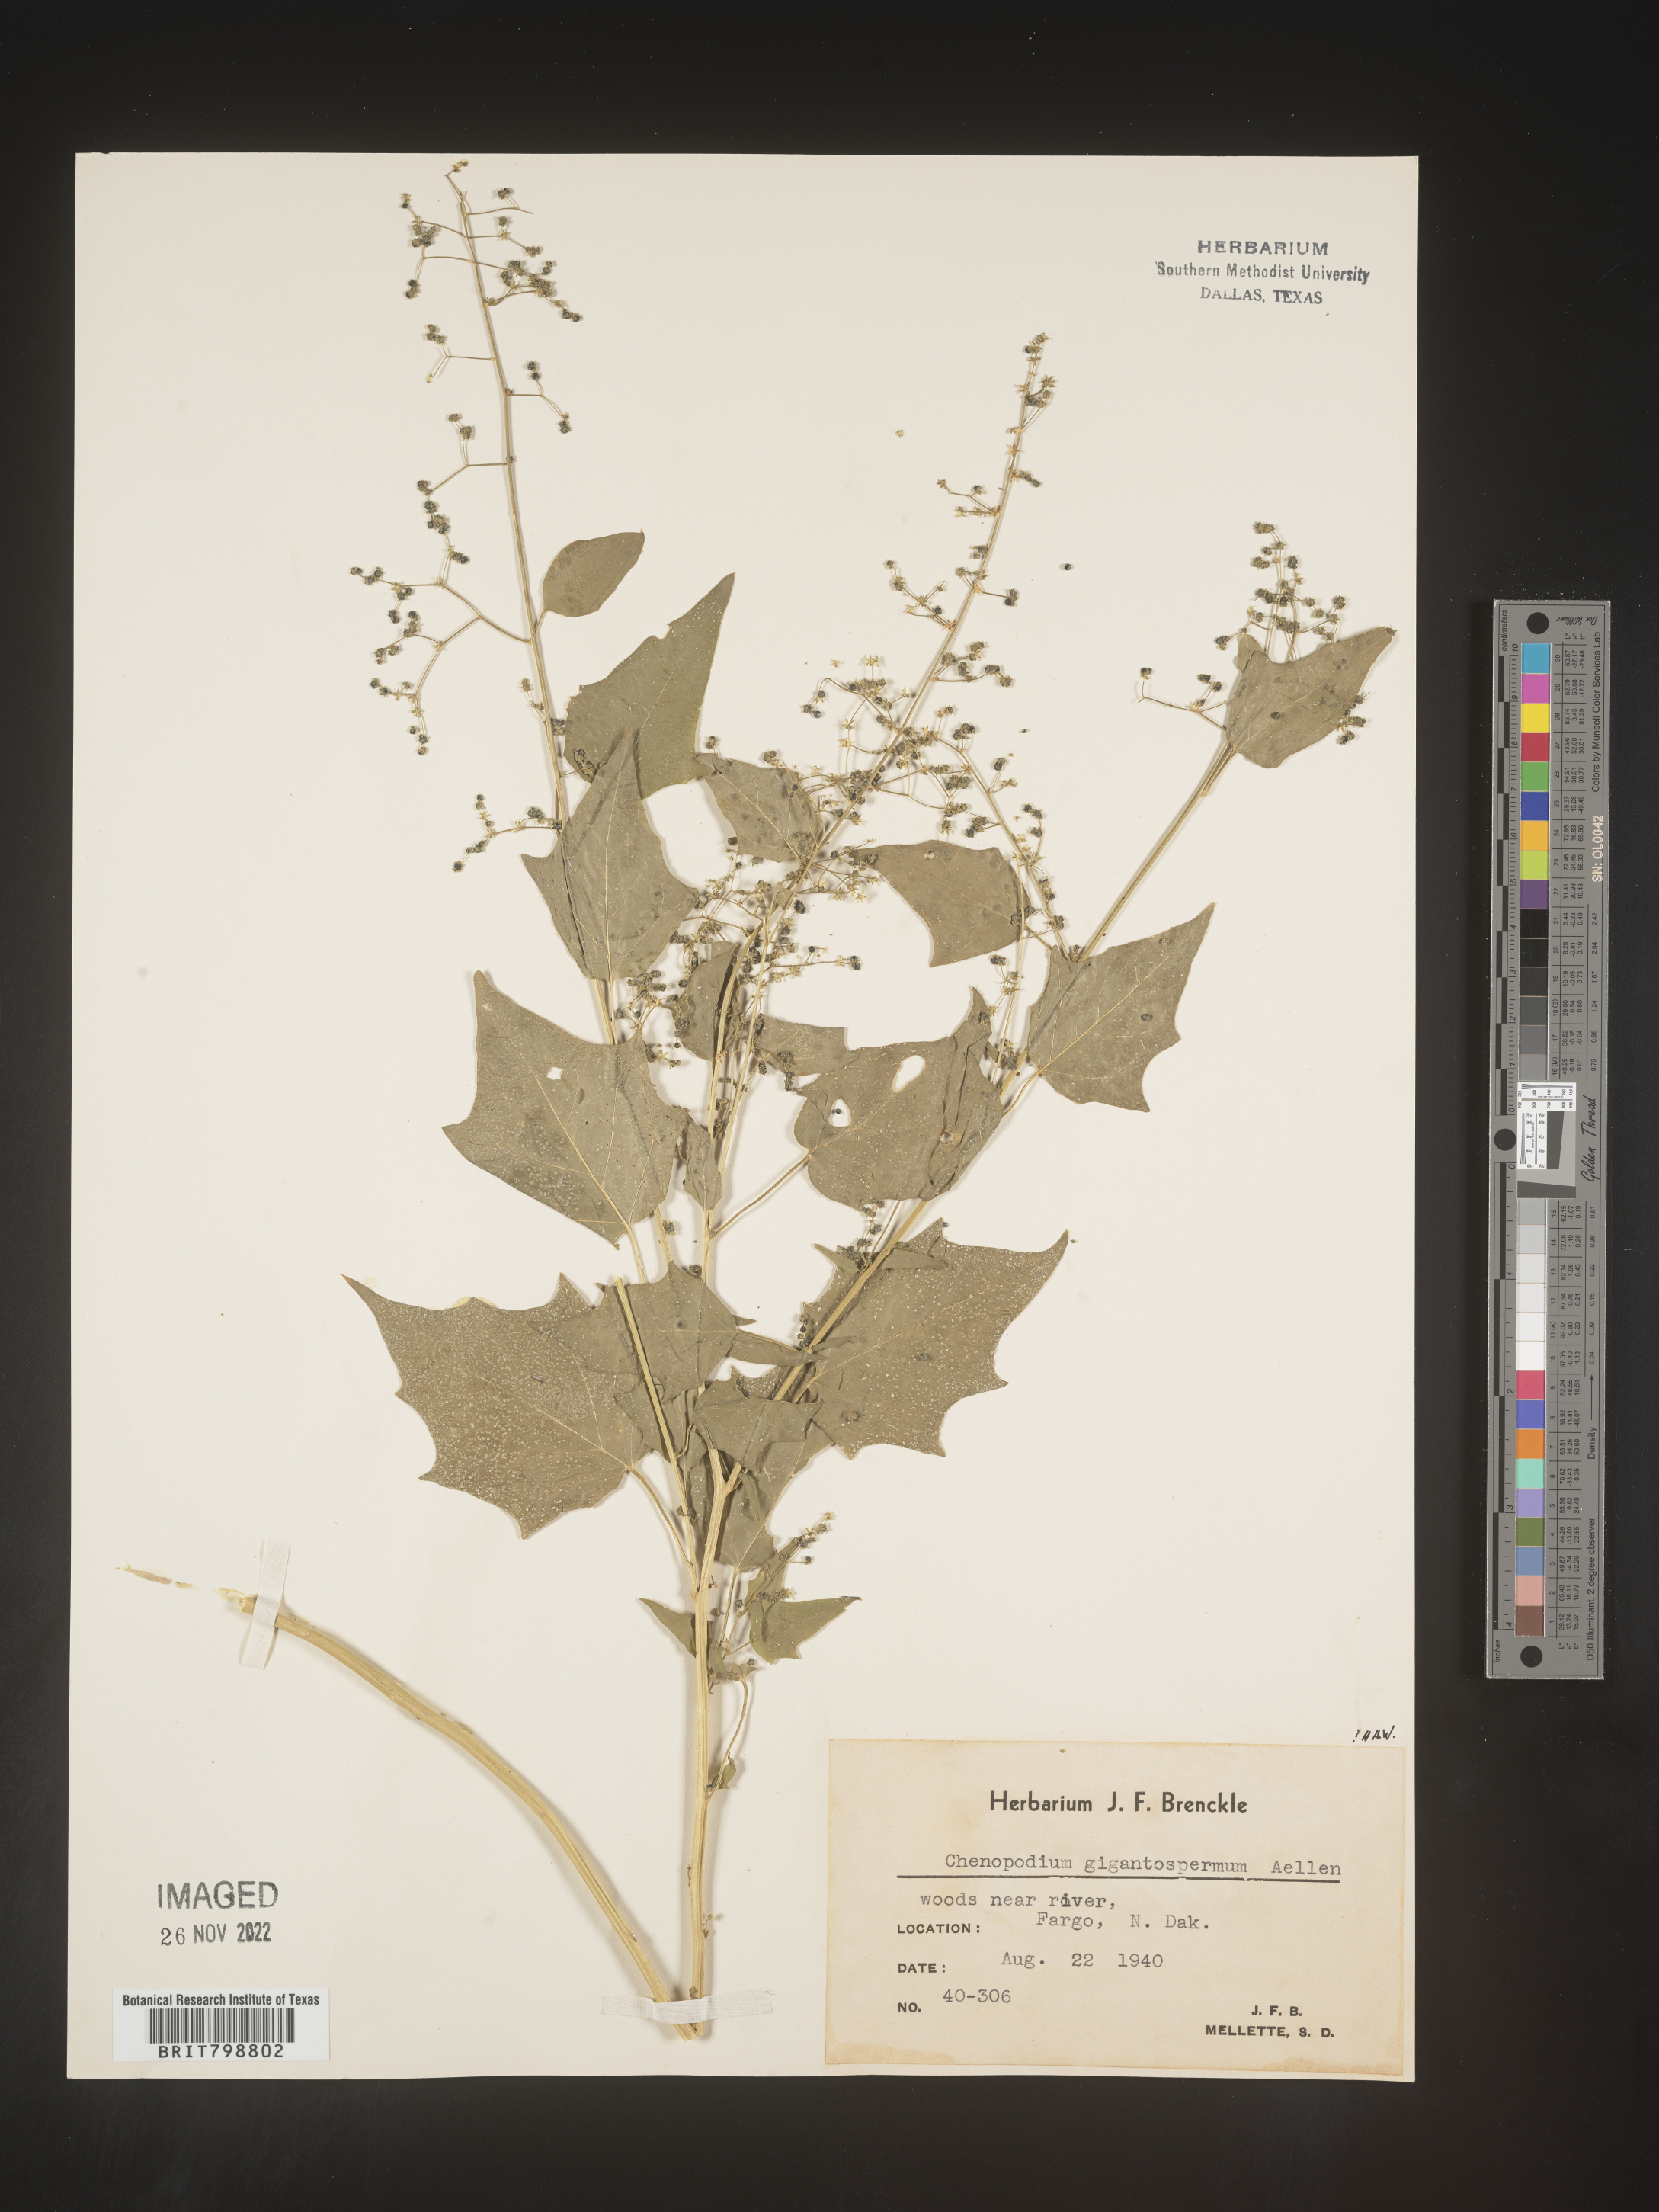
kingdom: Plantae
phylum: Tracheophyta
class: Magnoliopsida
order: Caryophyllales
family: Amaranthaceae
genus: Chenopodiastrum
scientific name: Chenopodiastrum simplex
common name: Large-seed goosefoot
